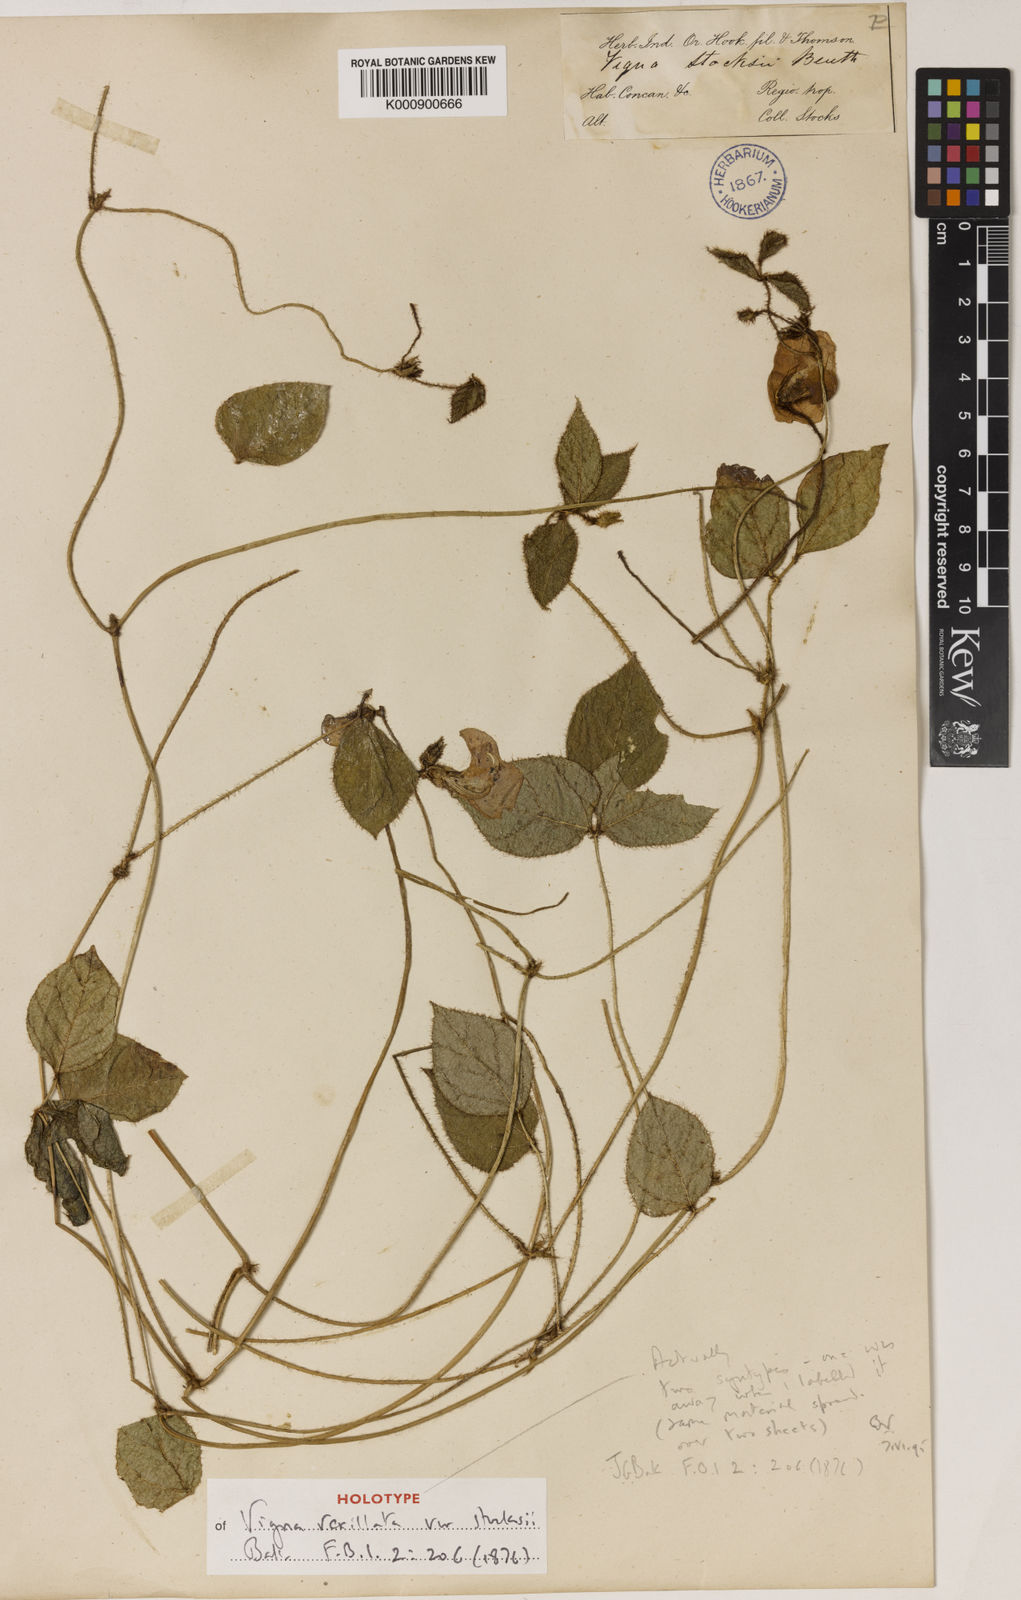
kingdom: Plantae
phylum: Tracheophyta
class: Magnoliopsida
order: Fabales
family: Fabaceae
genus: Vigna
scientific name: Vigna vexillata
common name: Zombi pea
